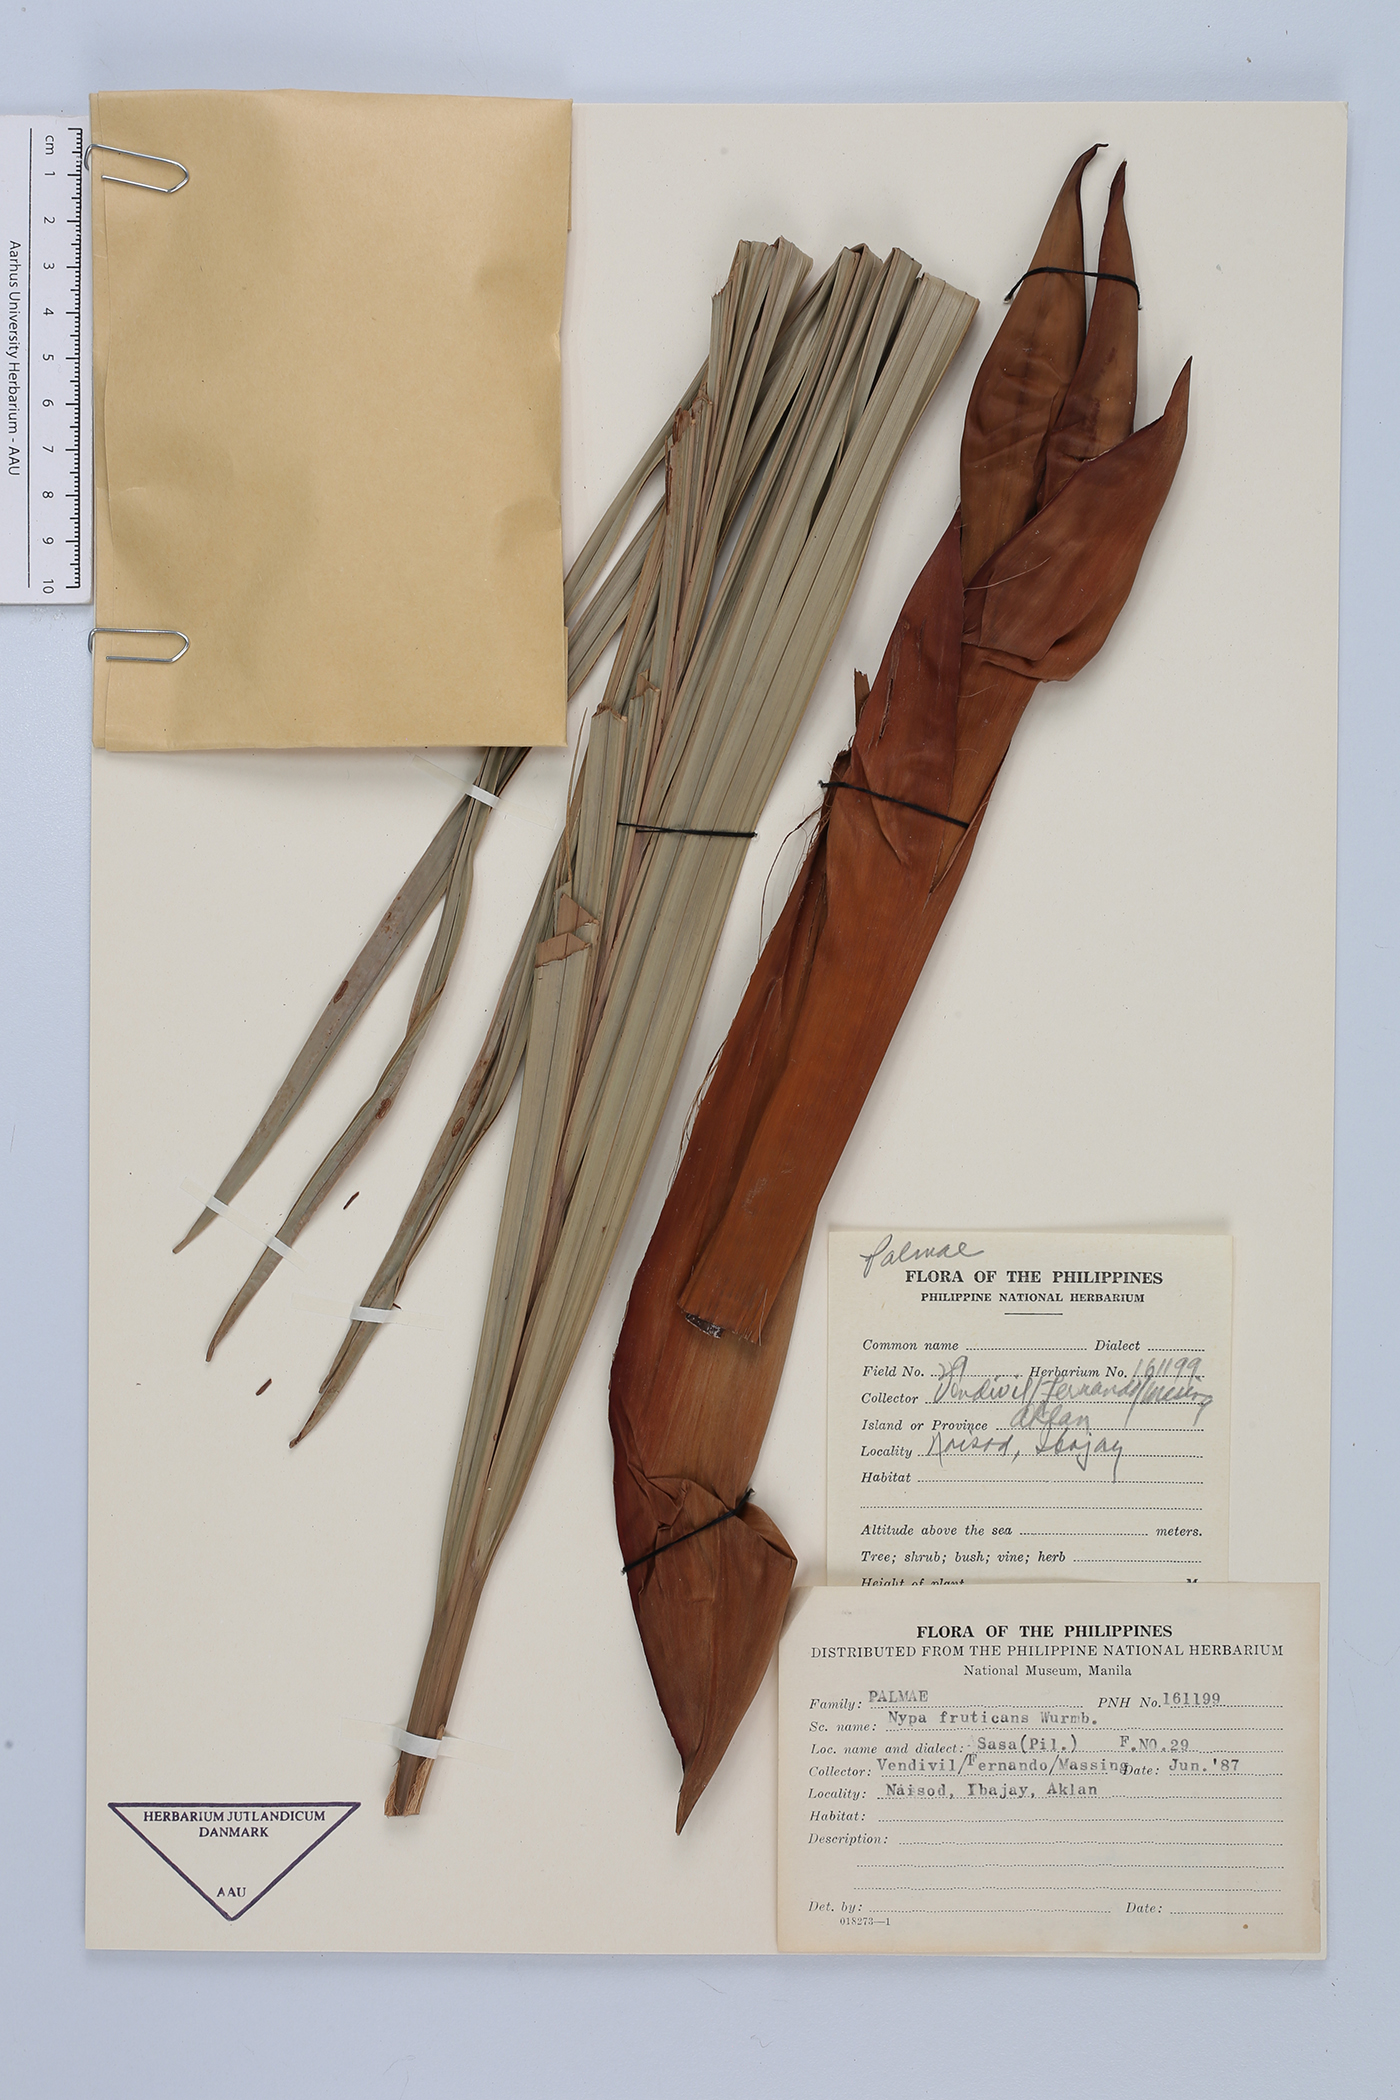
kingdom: Plantae
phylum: Tracheophyta
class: Liliopsida
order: Arecales
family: Arecaceae
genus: Nypa
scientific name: Nypa fruticans
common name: Mangrove palm
